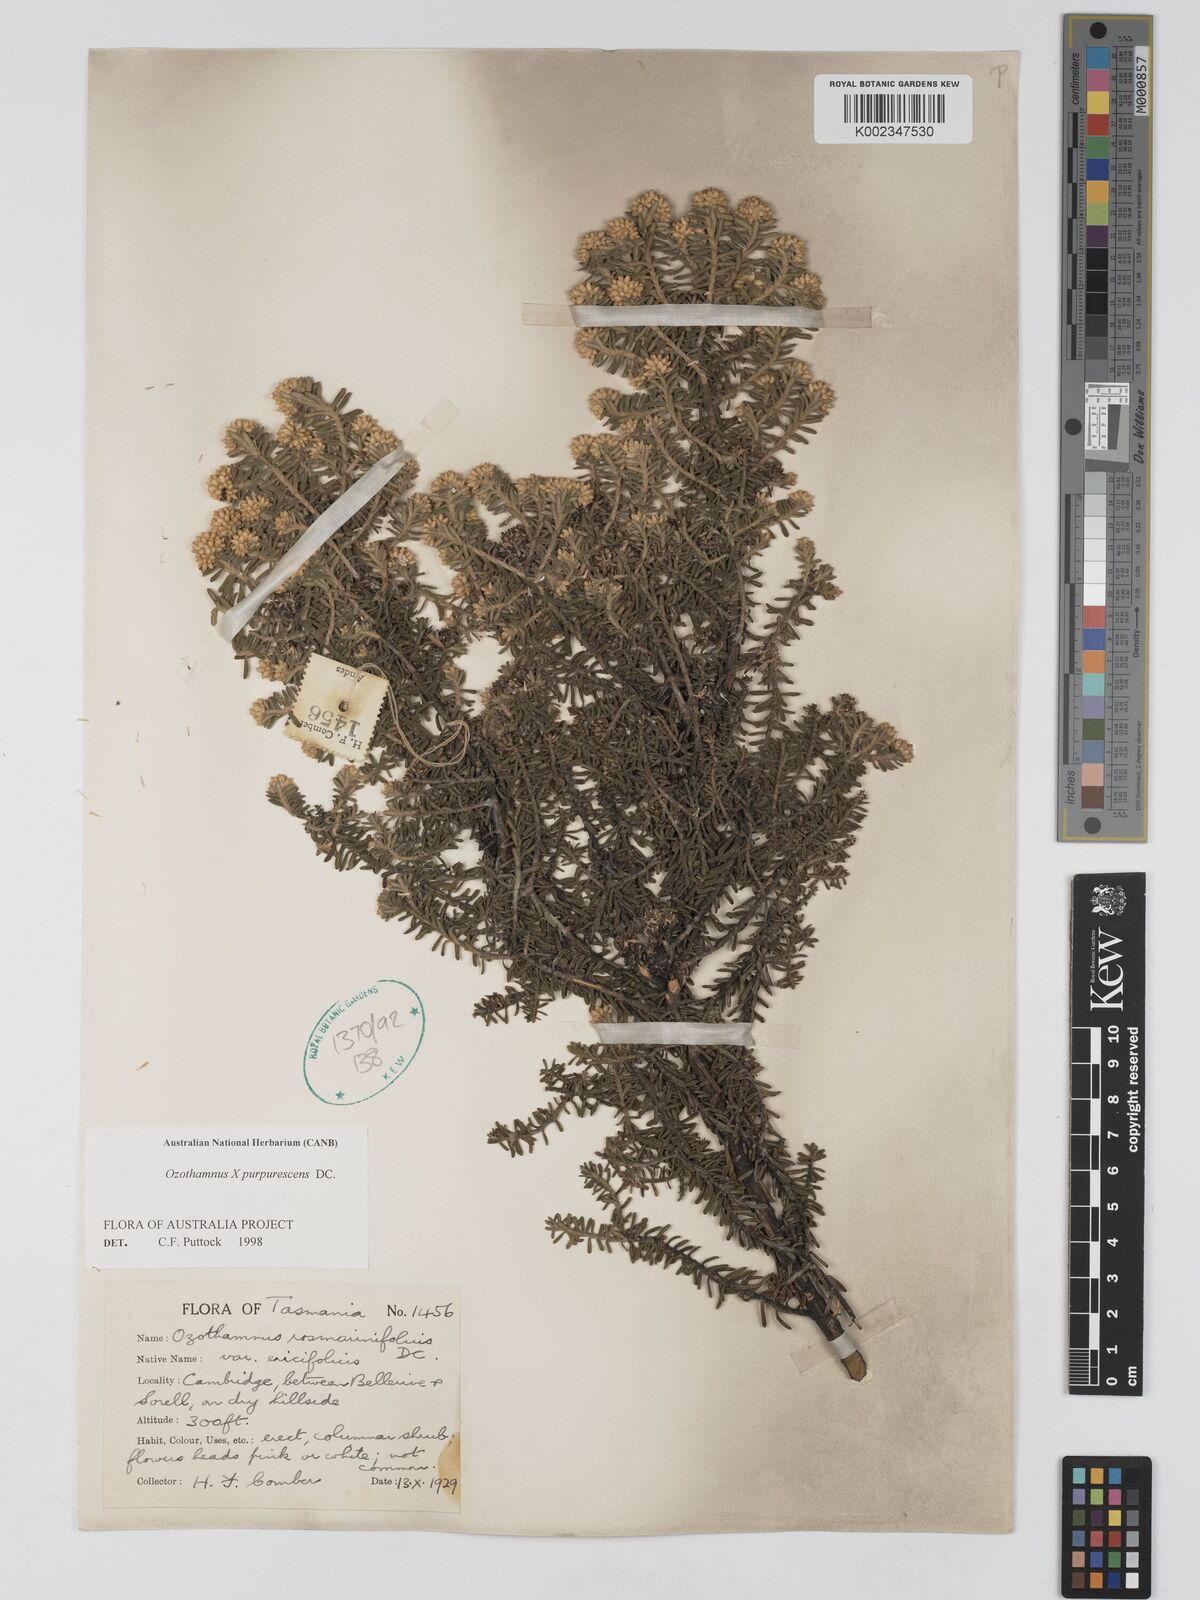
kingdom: Plantae
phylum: Tracheophyta
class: Magnoliopsida
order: Asterales
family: Asteraceae
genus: Ozothamnus
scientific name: Ozothamnus purpurascens
